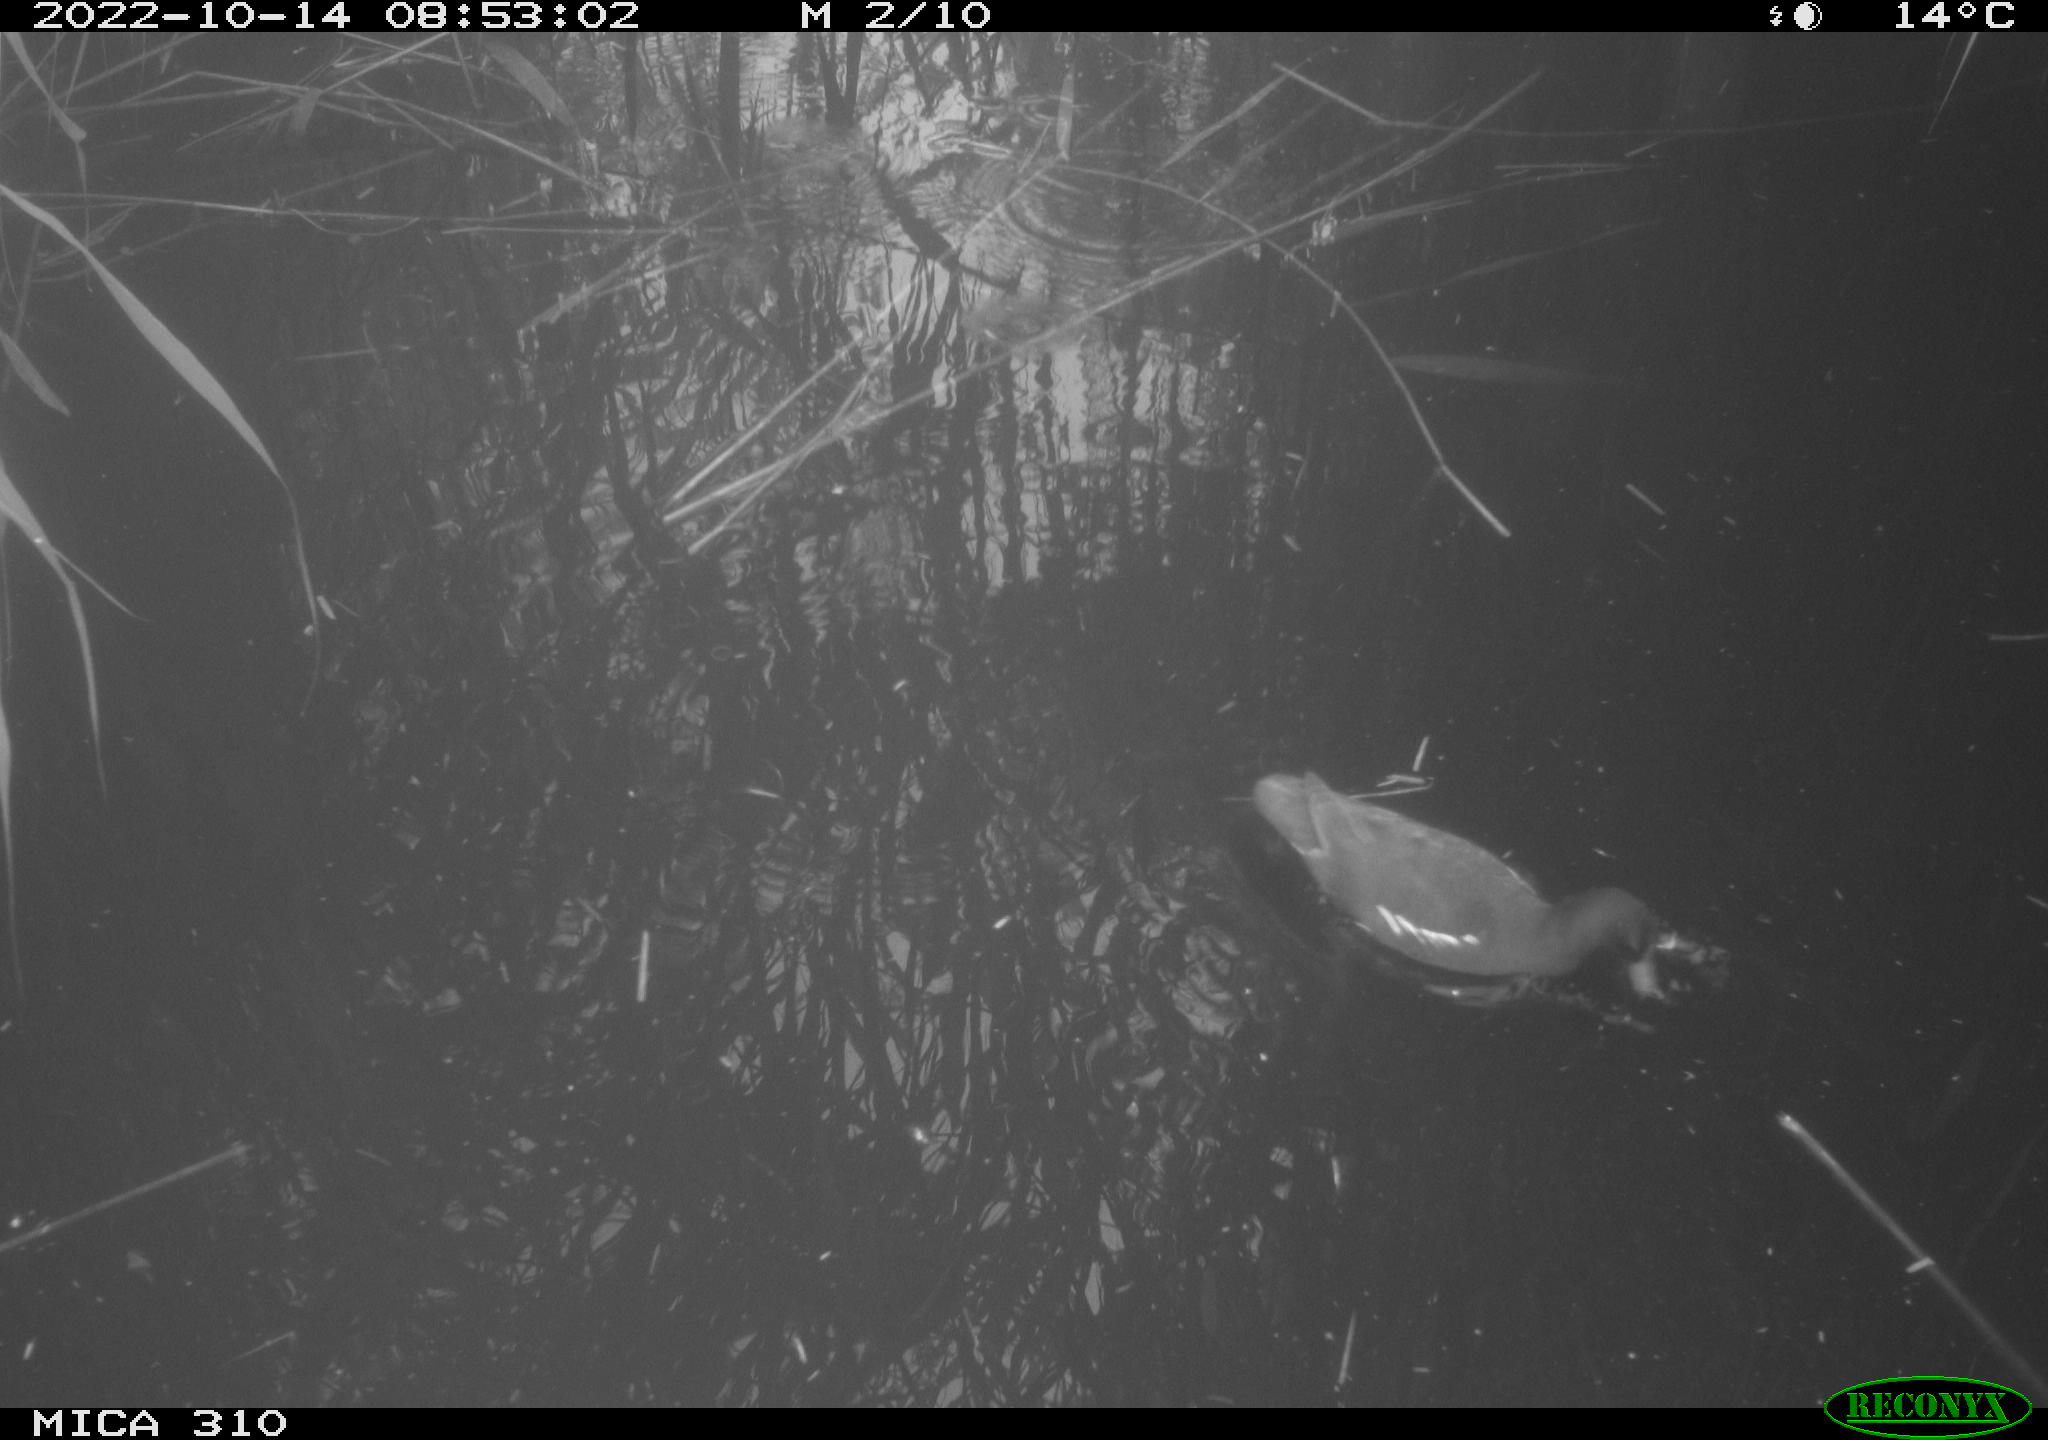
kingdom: Animalia
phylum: Chordata
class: Aves
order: Gruiformes
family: Rallidae
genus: Gallinula
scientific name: Gallinula chloropus
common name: Common moorhen
